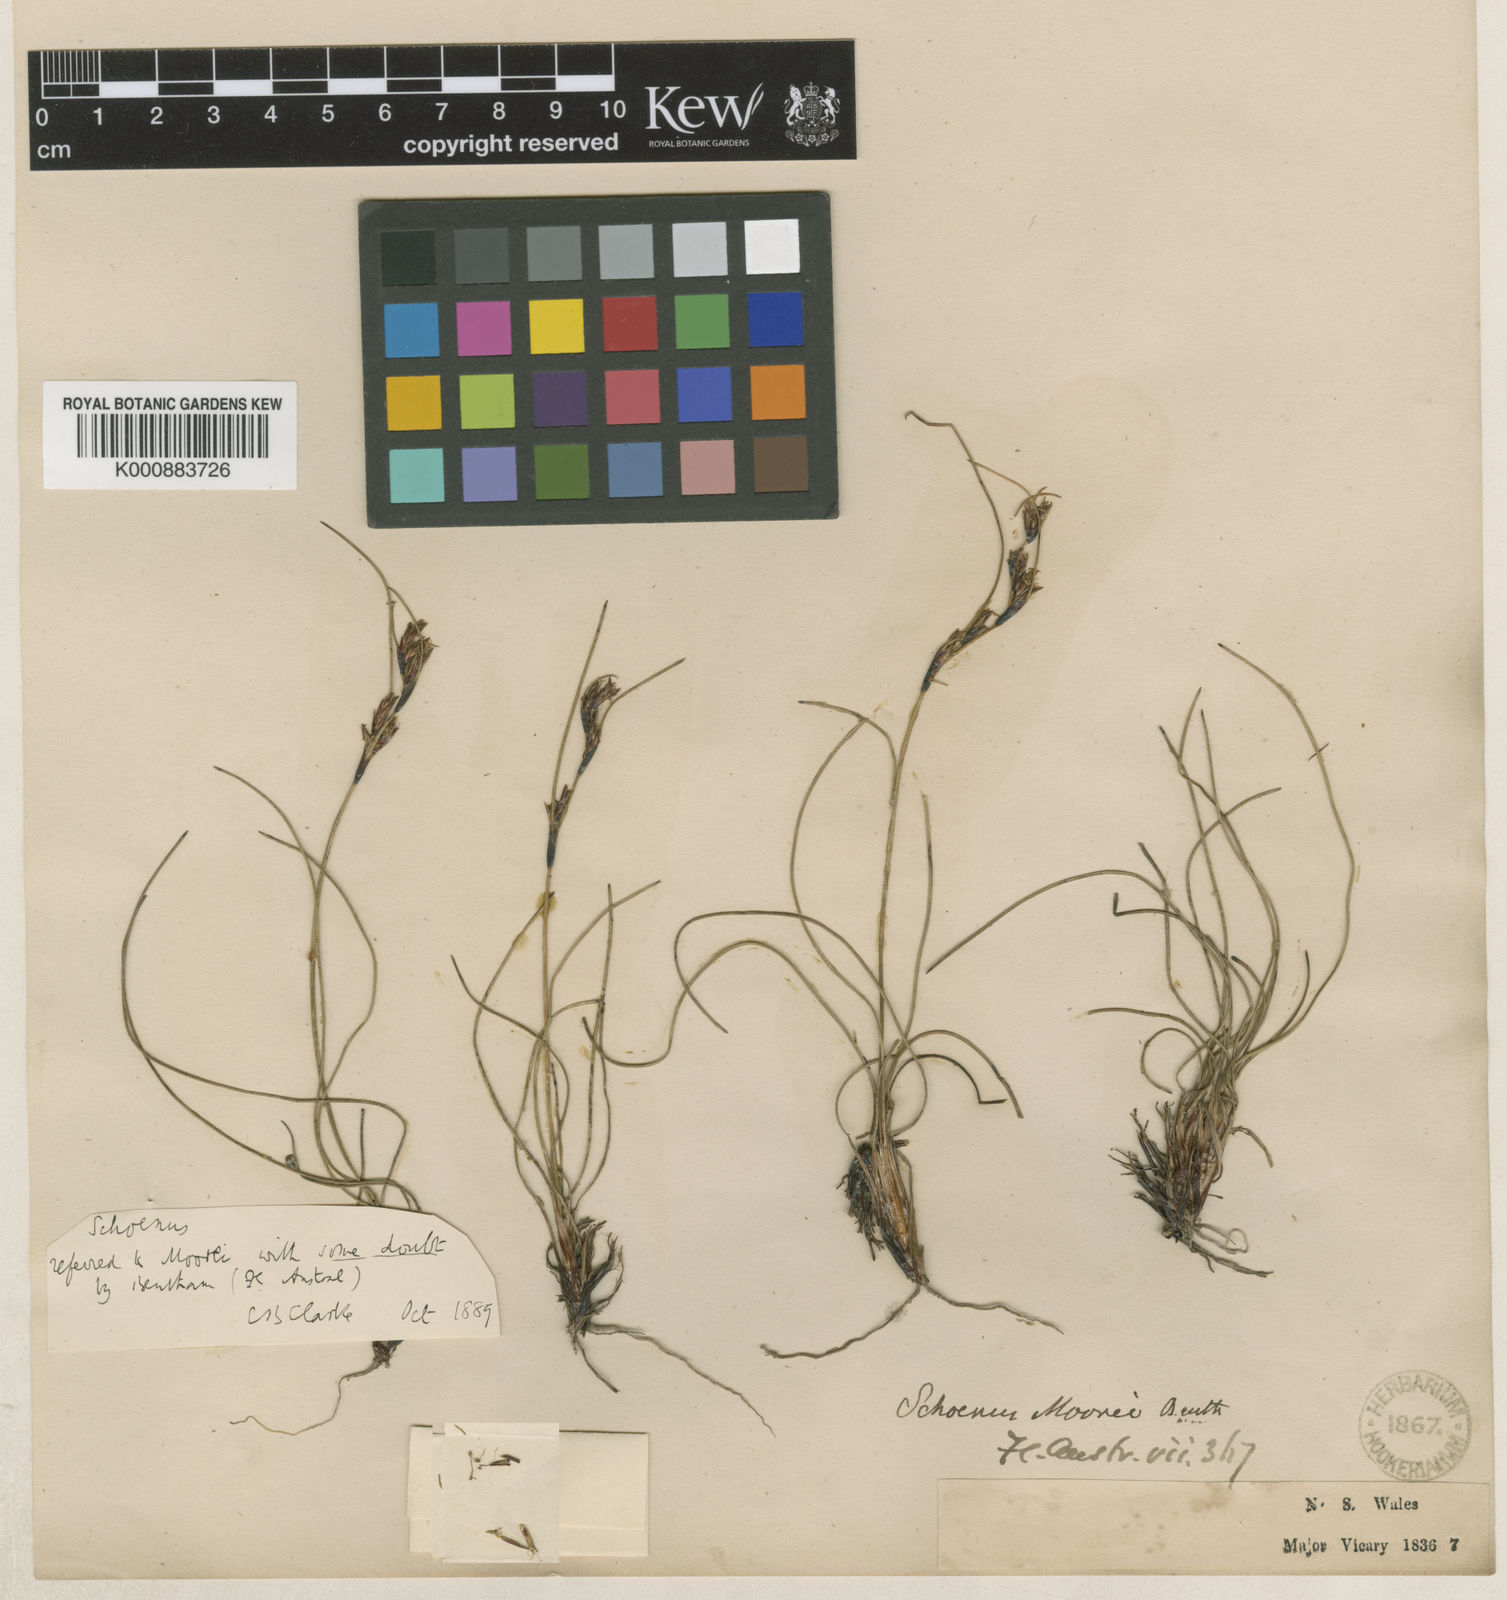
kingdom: Plantae
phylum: Tracheophyta
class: Liliopsida
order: Poales
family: Cyperaceae
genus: Schoenus
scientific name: Schoenus moorei
